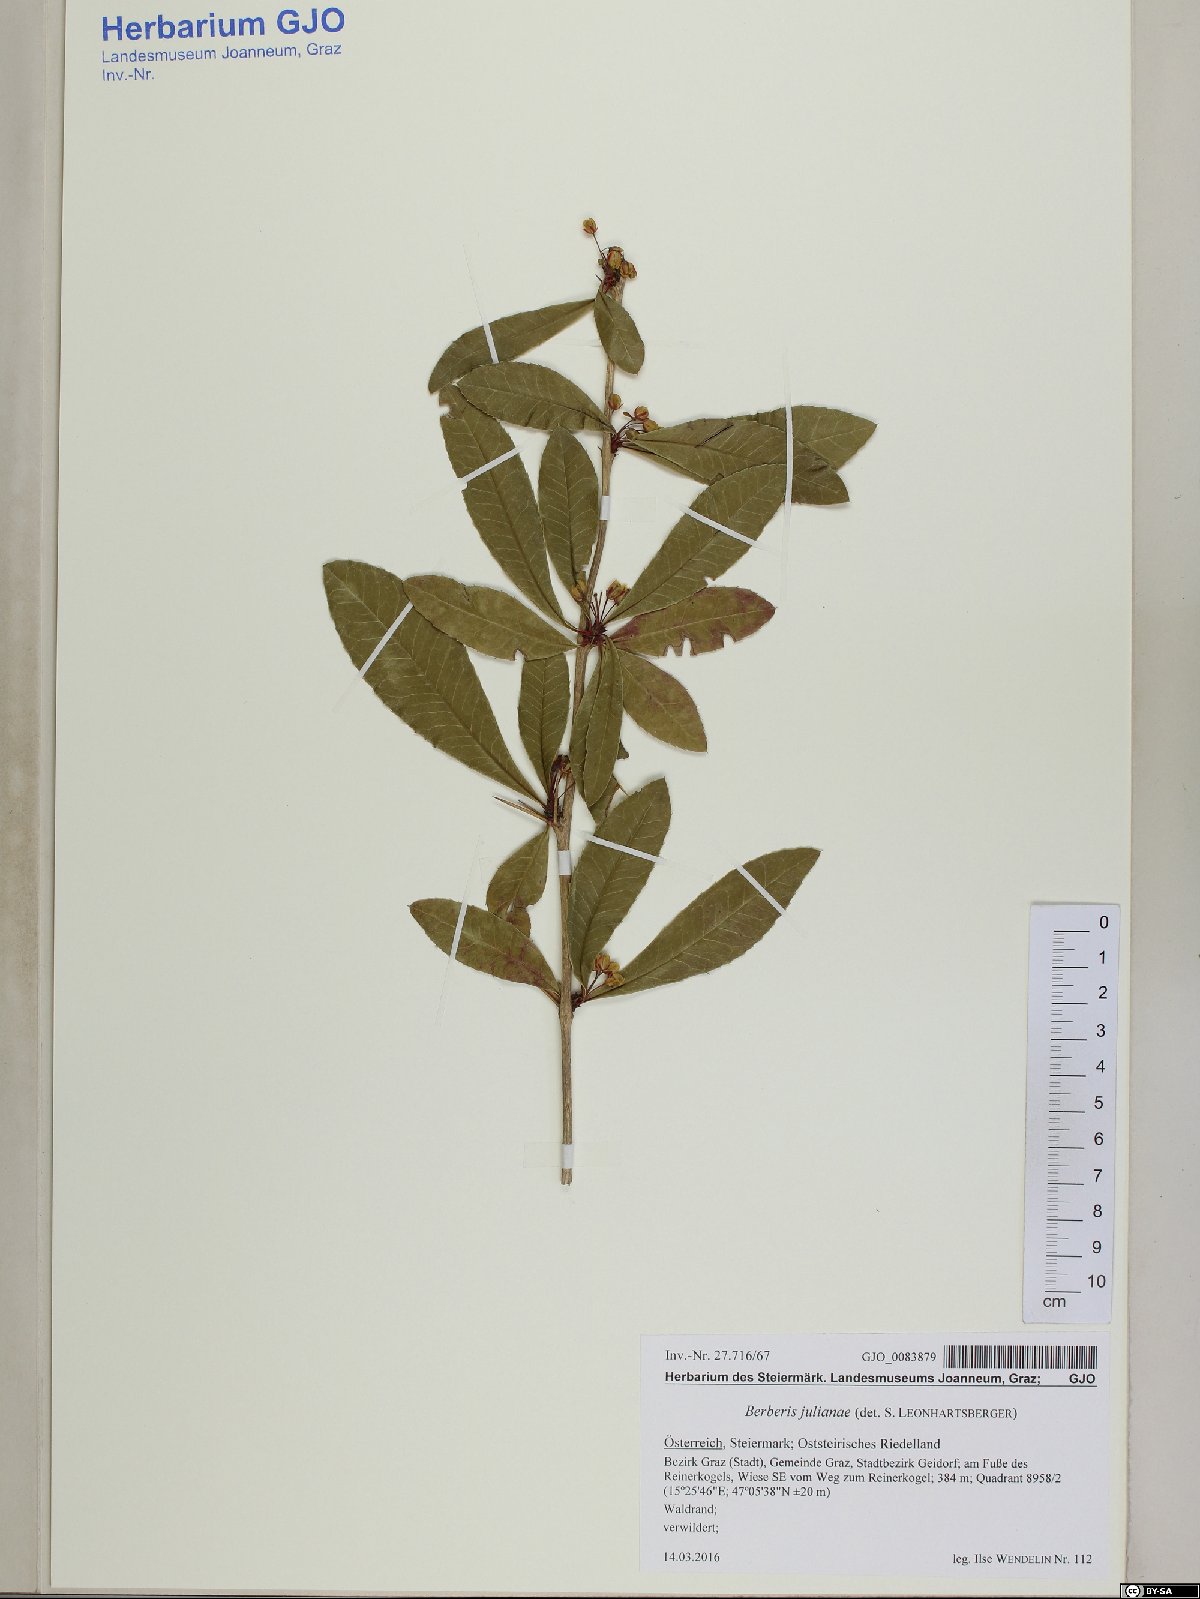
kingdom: Plantae
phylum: Tracheophyta
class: Magnoliopsida
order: Ranunculales
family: Berberidaceae
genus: Berberis
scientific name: Berberis julianae
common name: Wintergreen barberry
